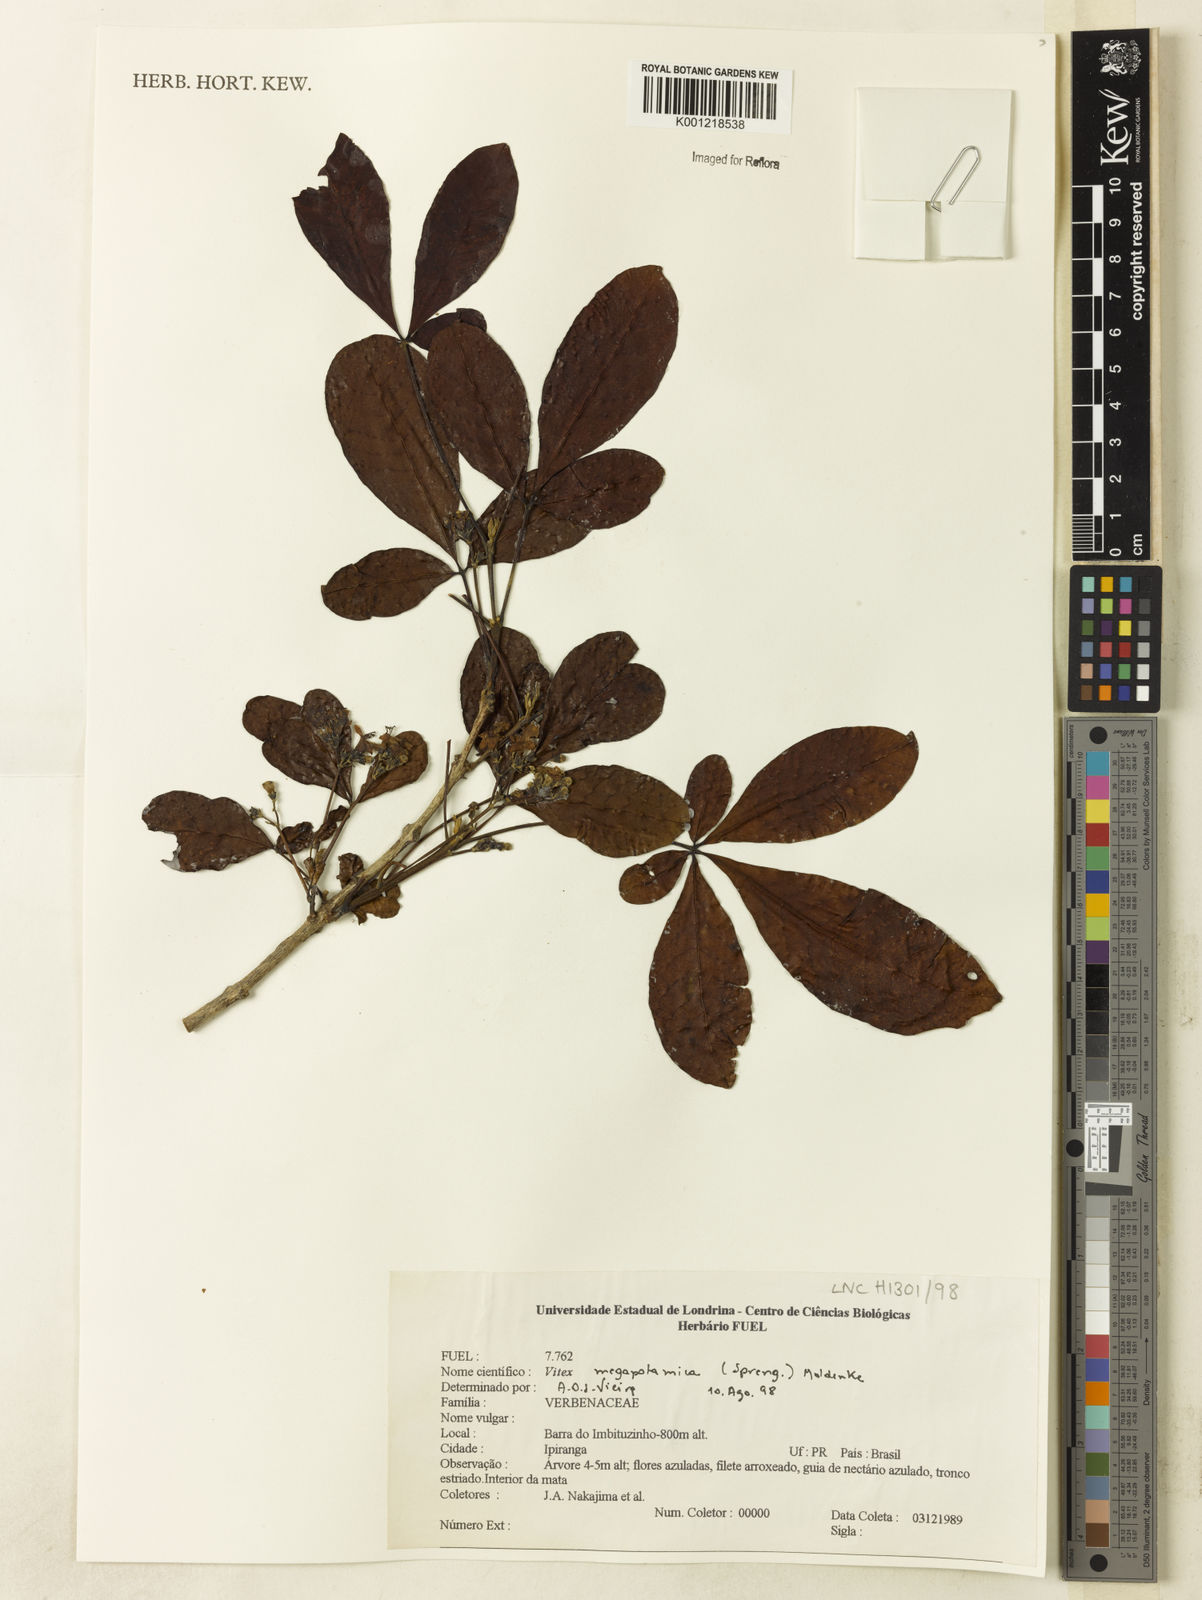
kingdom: Plantae
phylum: Tracheophyta
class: Magnoliopsida
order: Lamiales
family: Lamiaceae
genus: Vitex
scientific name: Vitex megapotamica
